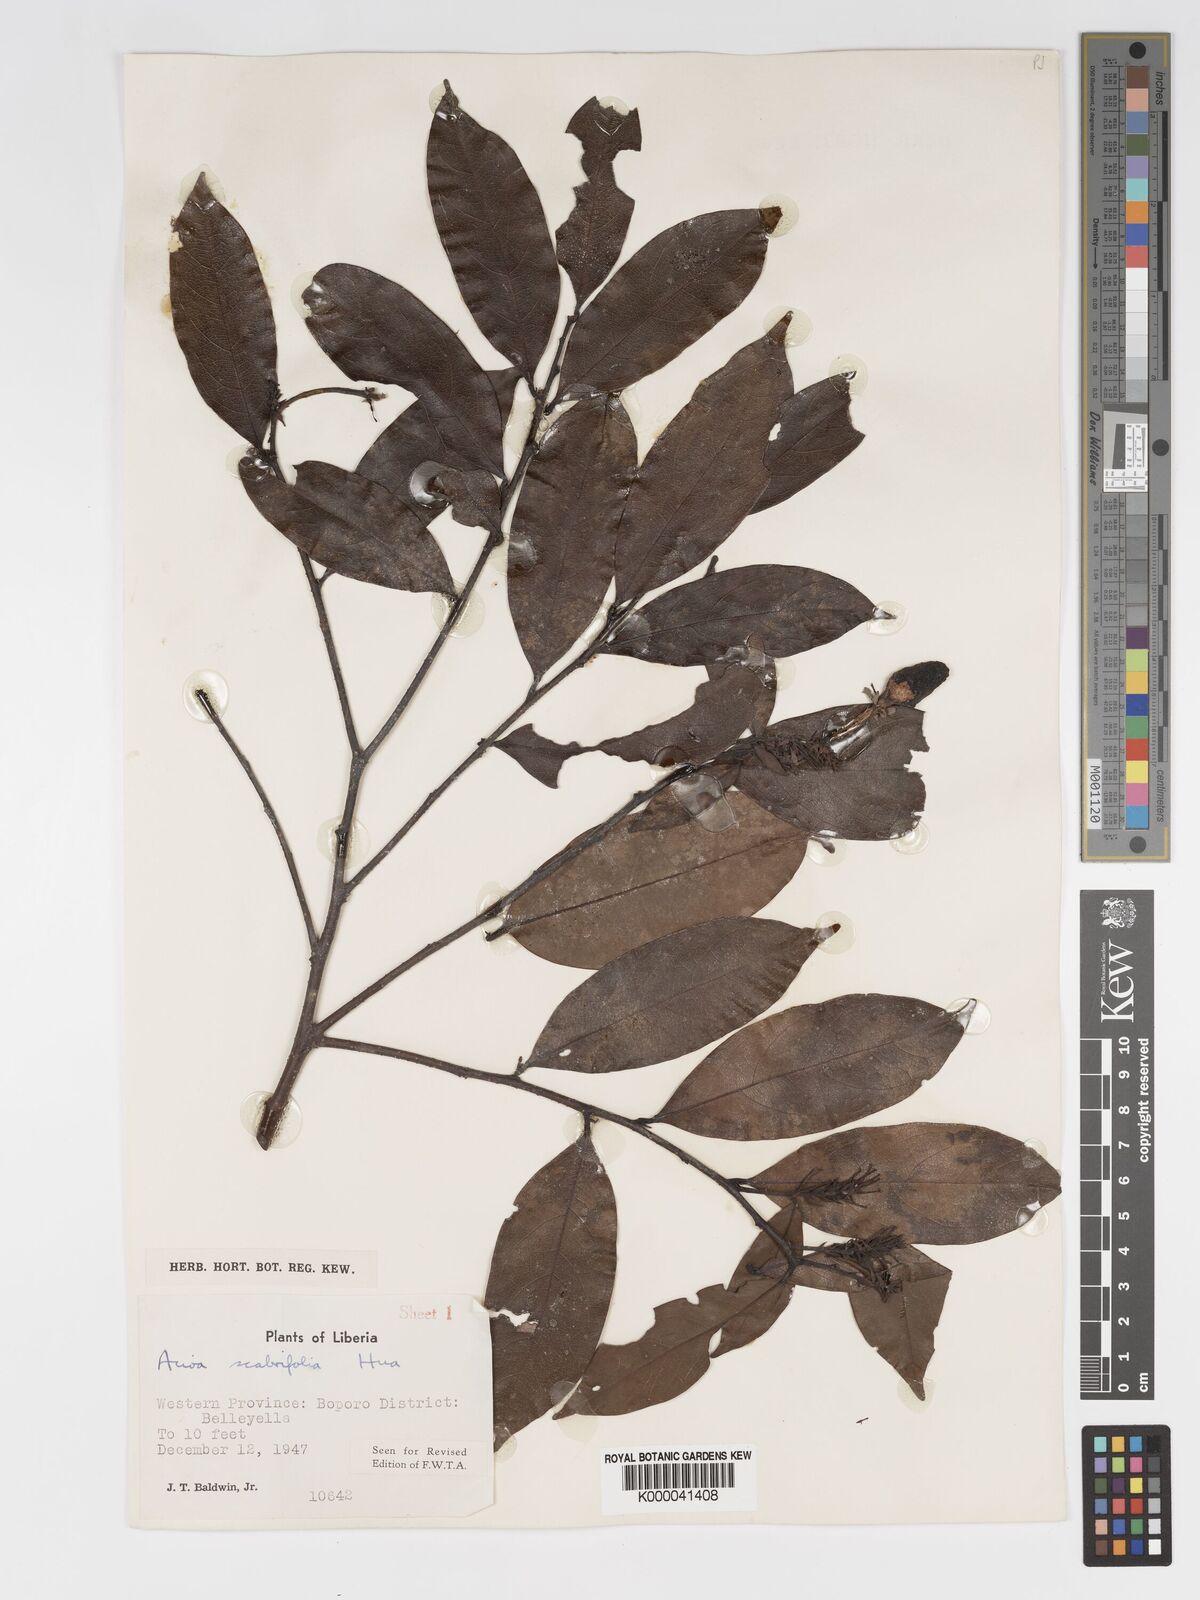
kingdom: Plantae
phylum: Tracheophyta
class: Magnoliopsida
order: Malpighiales
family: Chrysobalanaceae
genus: Dactyladenia
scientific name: Dactyladenia scabrifolia
